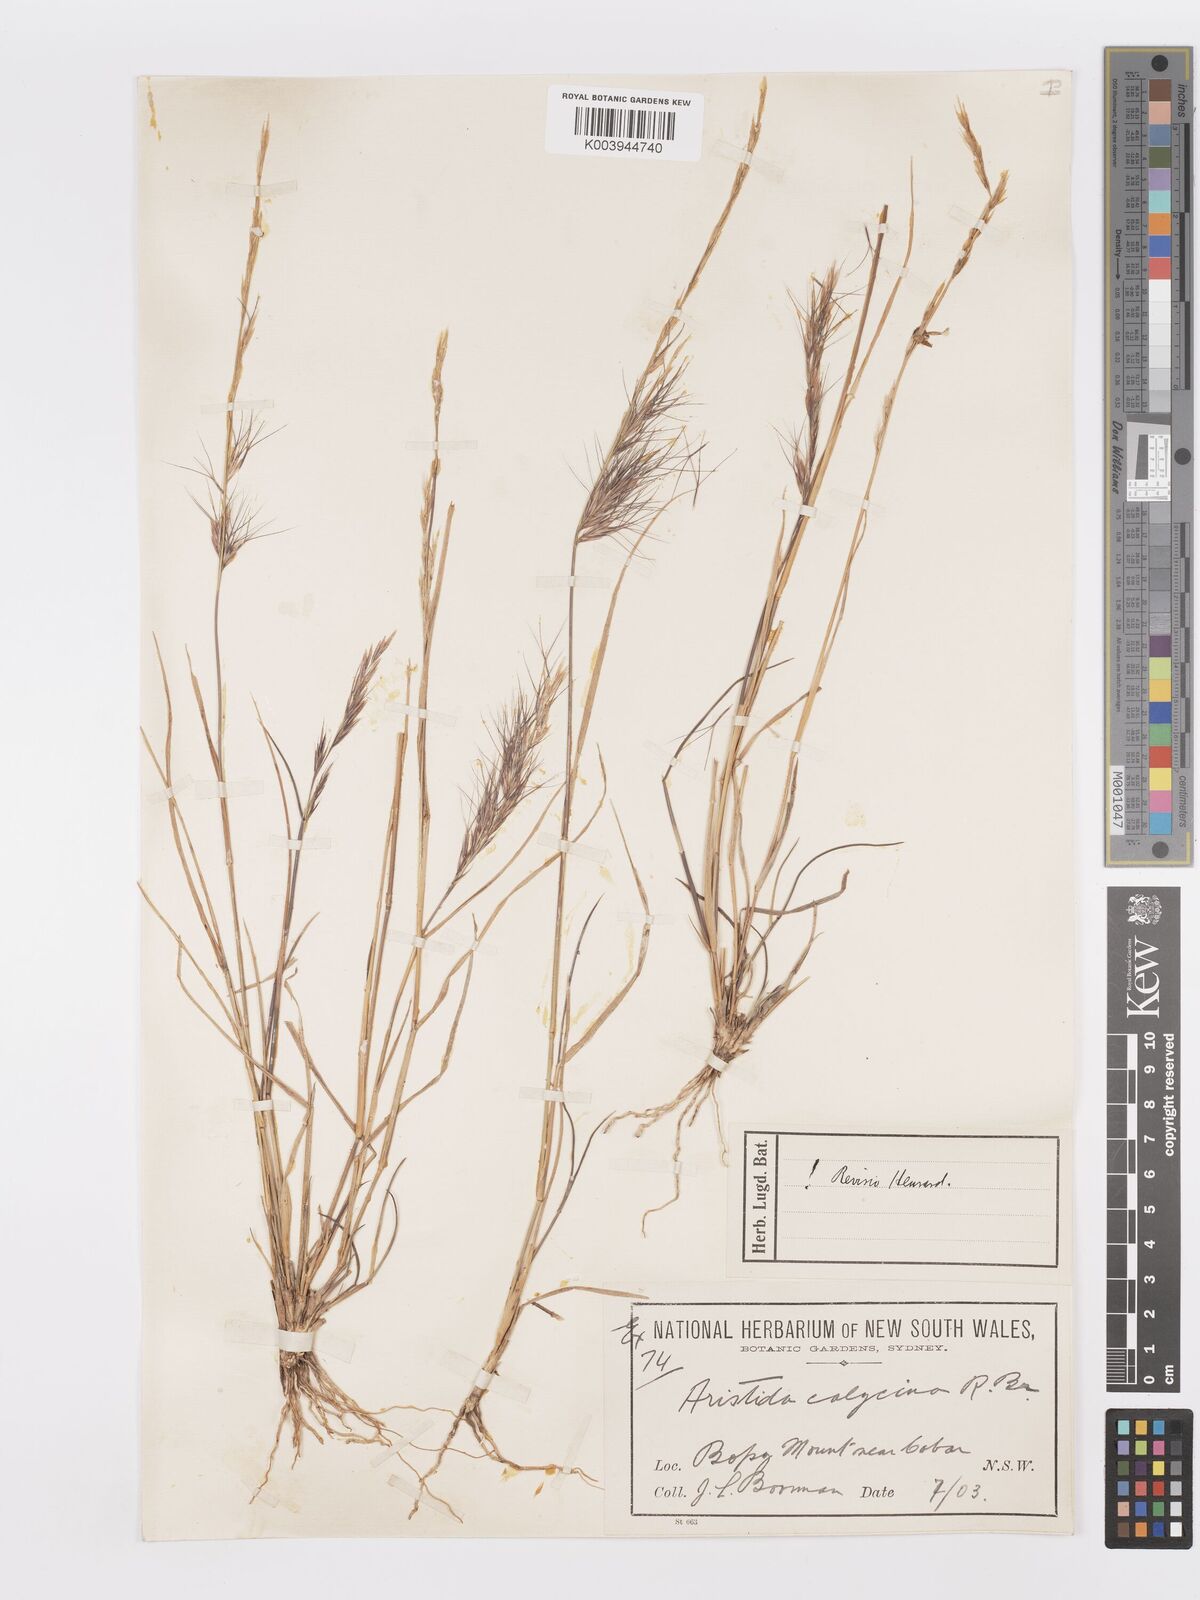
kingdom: Plantae
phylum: Tracheophyta
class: Liliopsida
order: Poales
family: Poaceae
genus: Aristida
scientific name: Aristida calycina
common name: Dark wire grass
